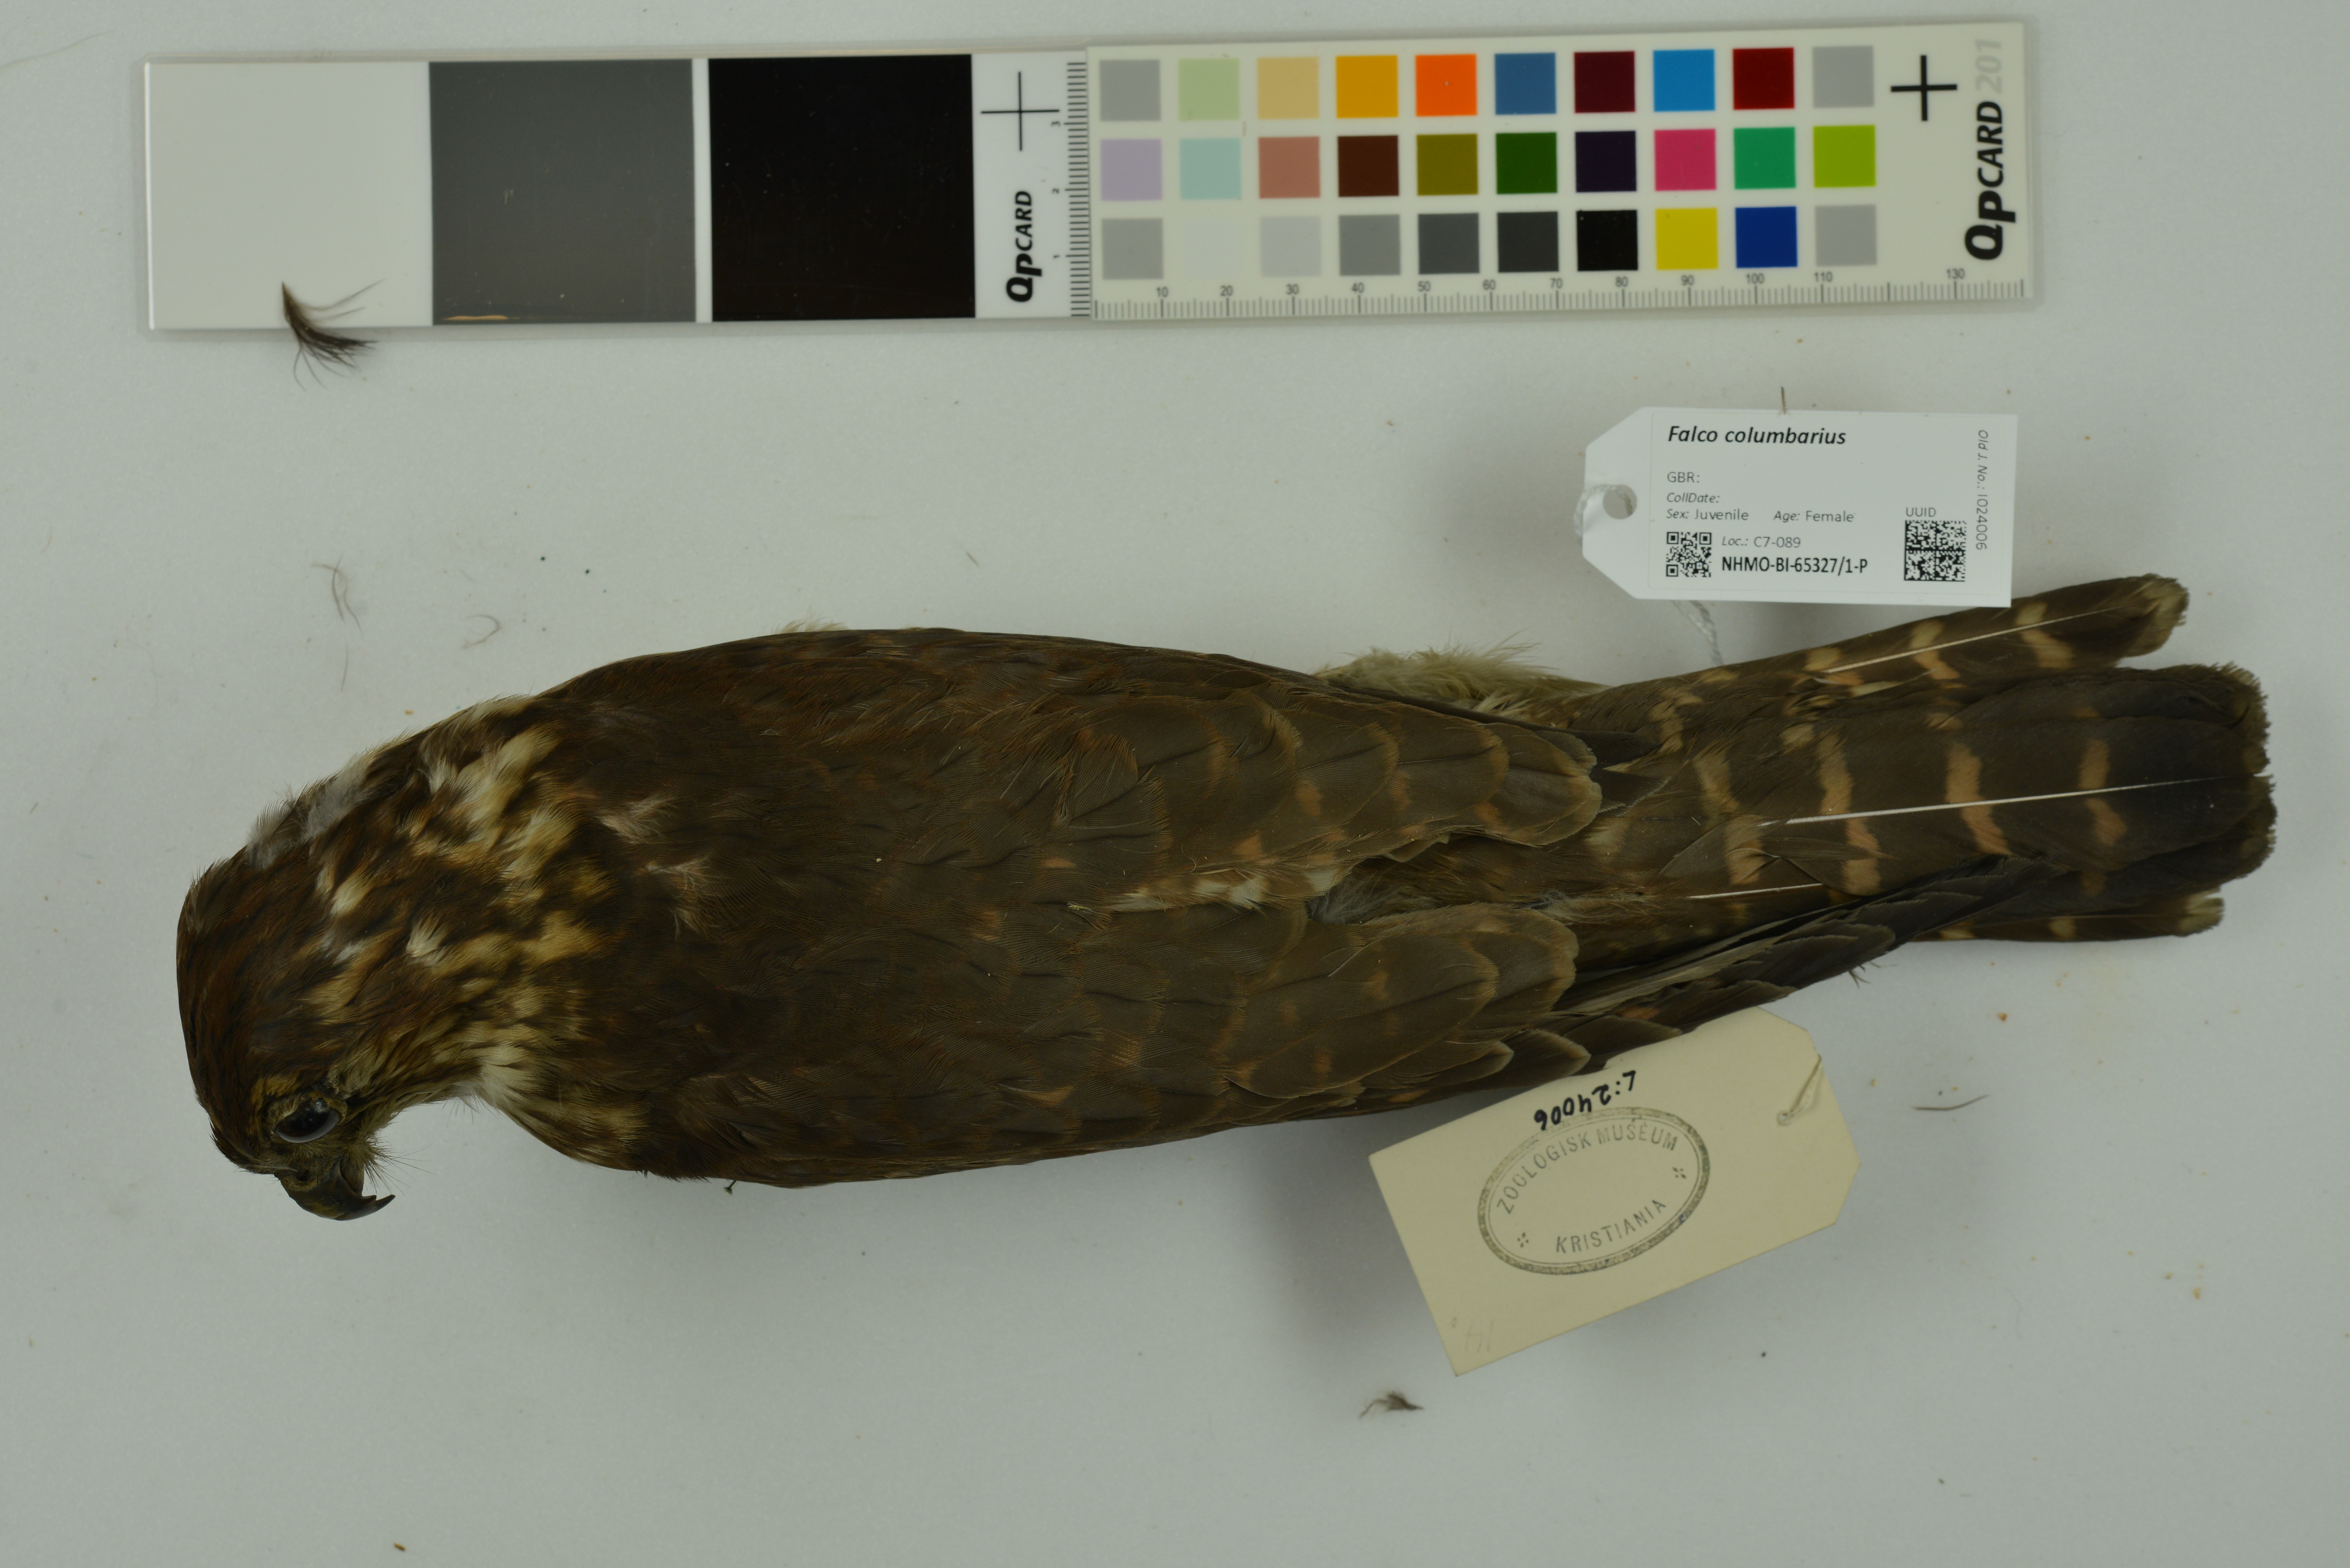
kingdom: Animalia
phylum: Chordata
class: Aves
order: Falconiformes
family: Falconidae
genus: Falco
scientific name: Falco columbarius
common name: Merlin
